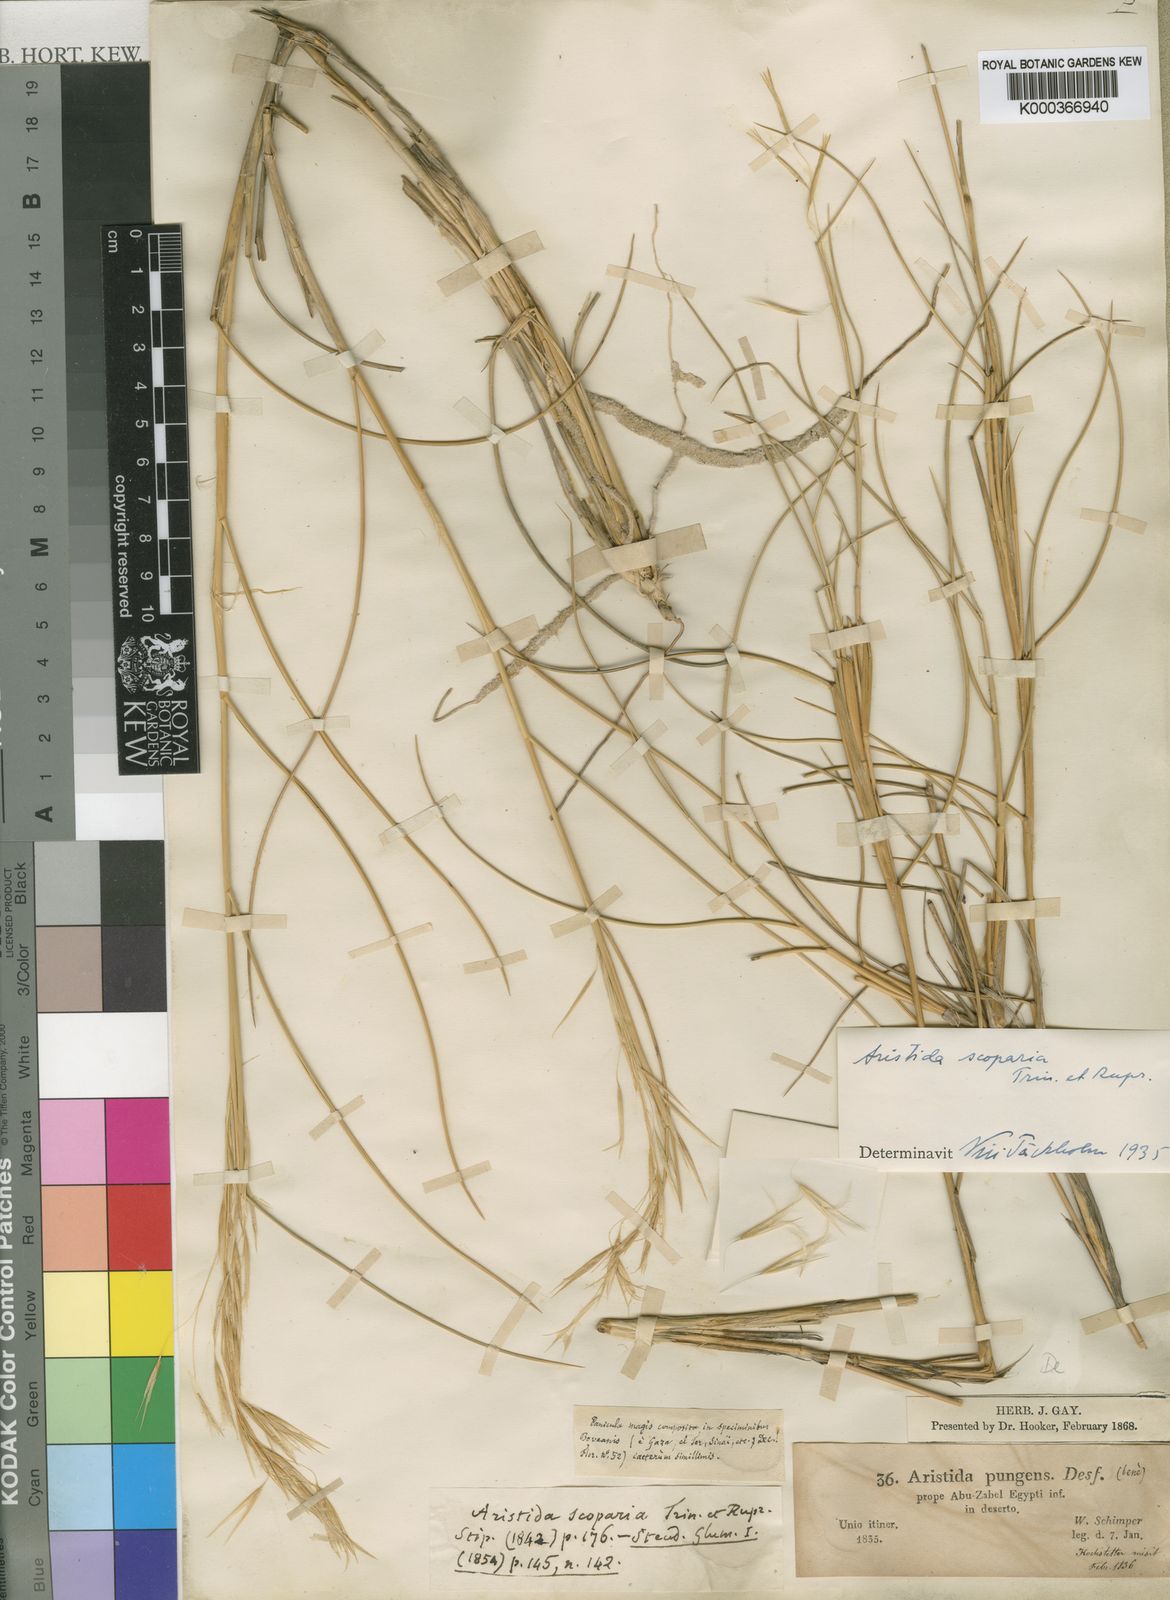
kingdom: Plantae
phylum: Tracheophyta
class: Liliopsida
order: Poales
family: Poaceae
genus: Stipagrostis
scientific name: Stipagrostis scoparia
